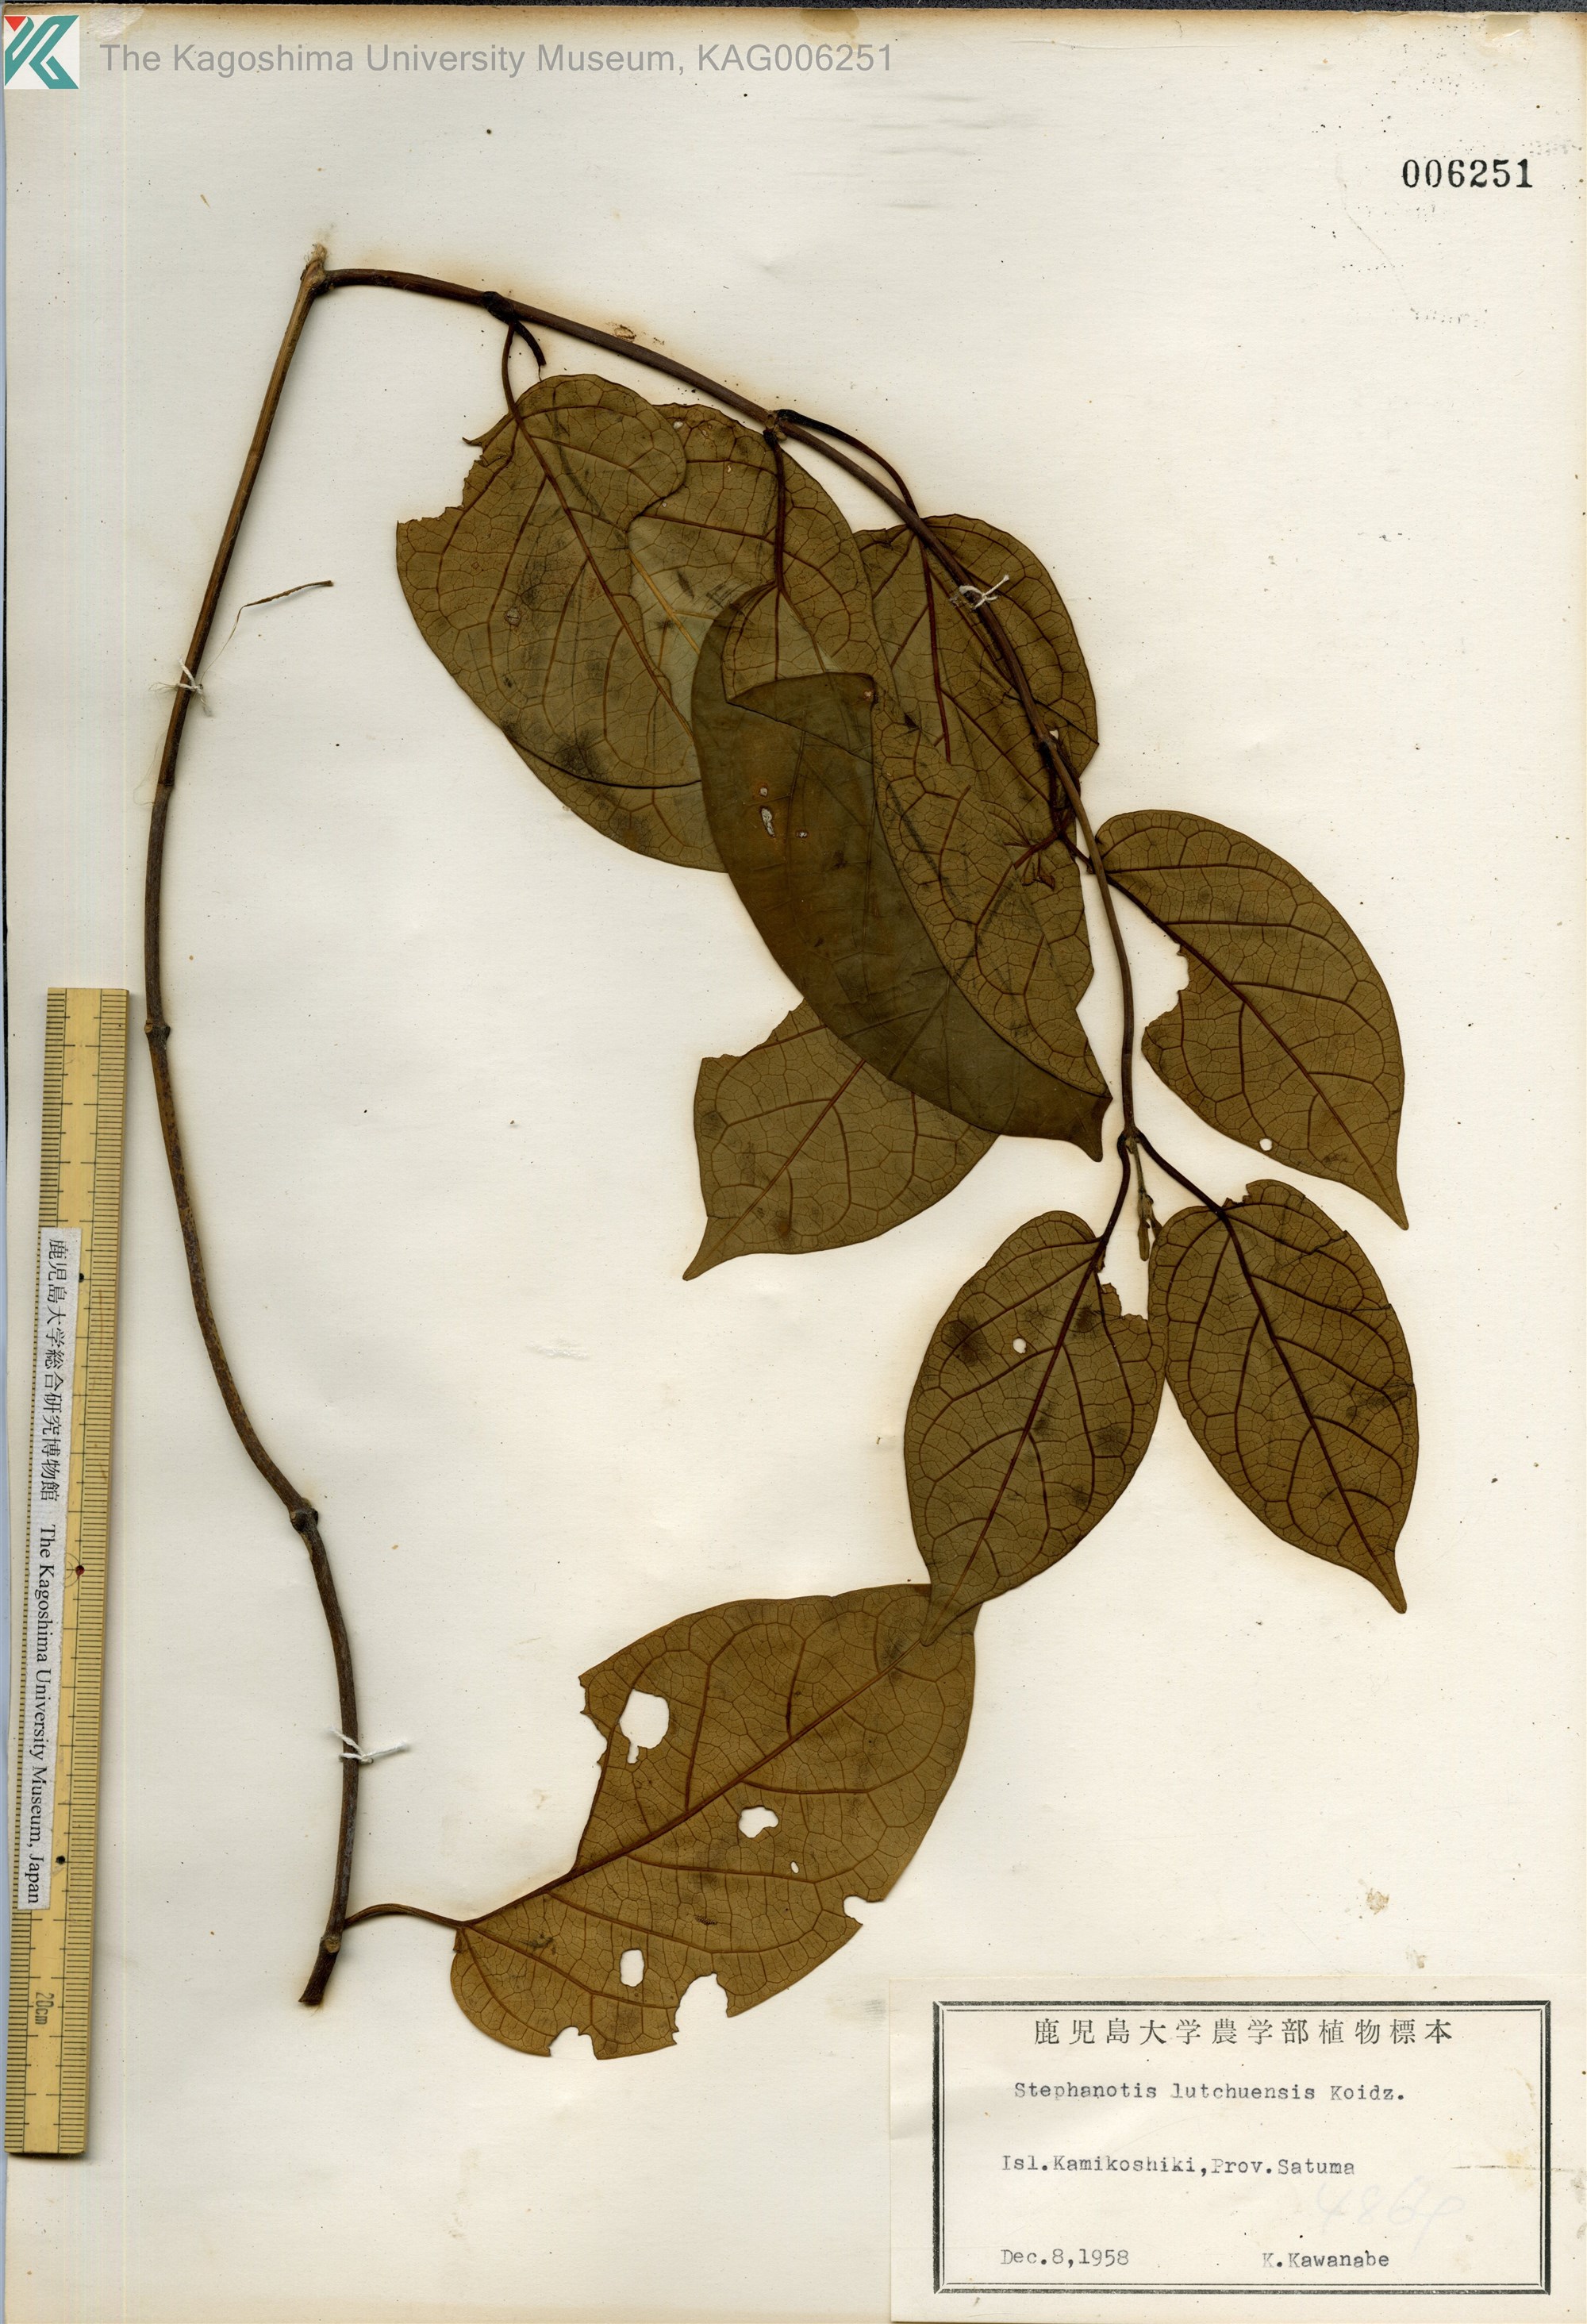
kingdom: Plantae
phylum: Tracheophyta
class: Magnoliopsida
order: Gentianales
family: Apocynaceae
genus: Jasminanthes
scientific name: Jasminanthes mucronata
